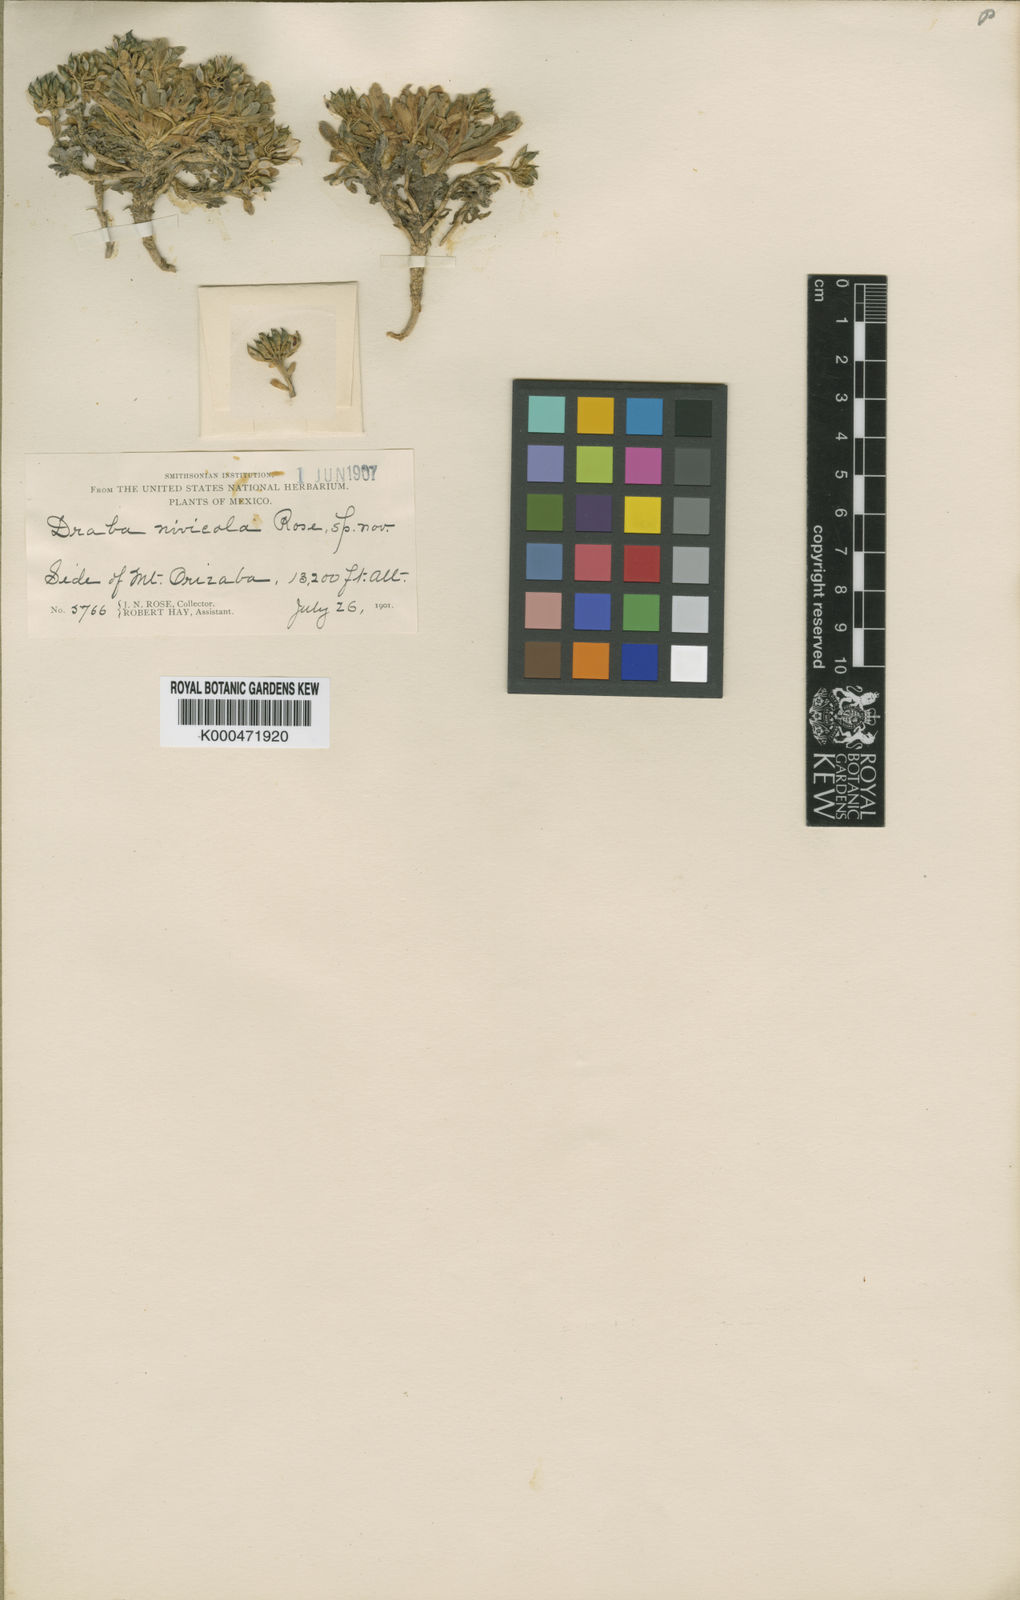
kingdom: Plantae
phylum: Tracheophyta
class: Magnoliopsida
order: Brassicales
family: Brassicaceae
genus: Draba
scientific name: Draba nivicola
